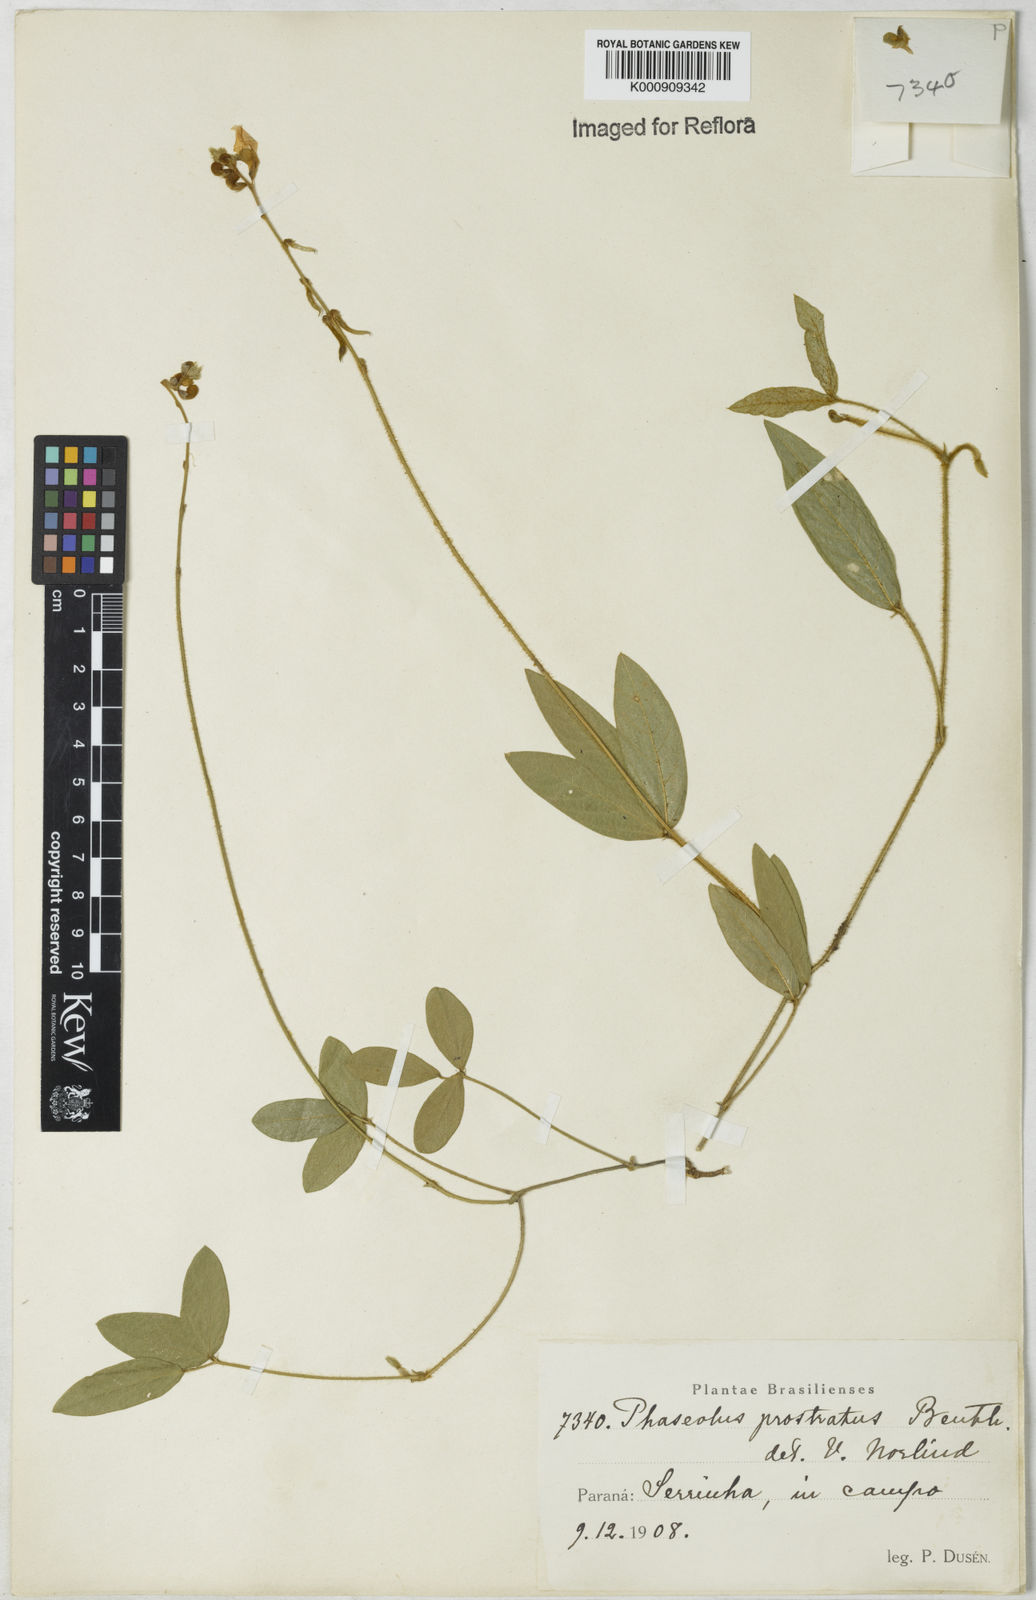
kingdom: Plantae
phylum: Tracheophyta
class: Magnoliopsida
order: Fabales
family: Fabaceae
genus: Macroptilium
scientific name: Macroptilium prostratum
